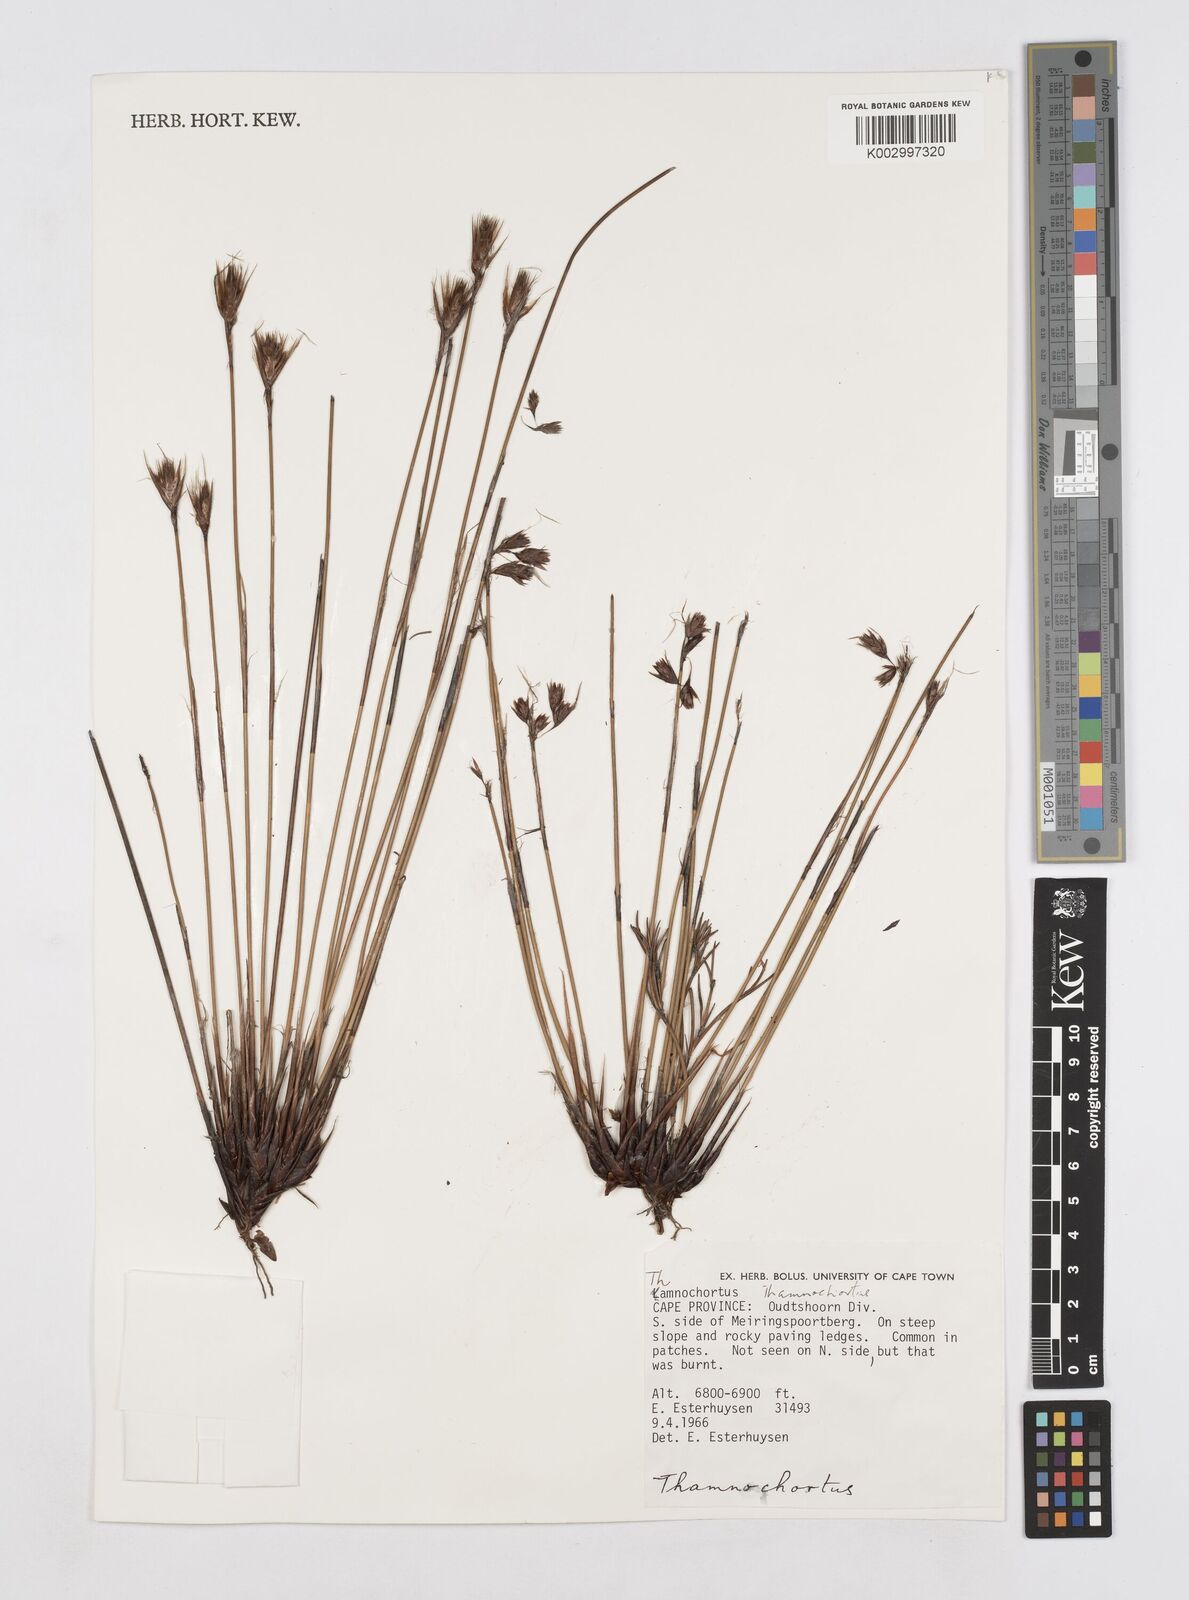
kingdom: Plantae
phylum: Tracheophyta
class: Liliopsida
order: Poales
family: Restionaceae
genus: Thamnochortus
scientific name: Thamnochortus
